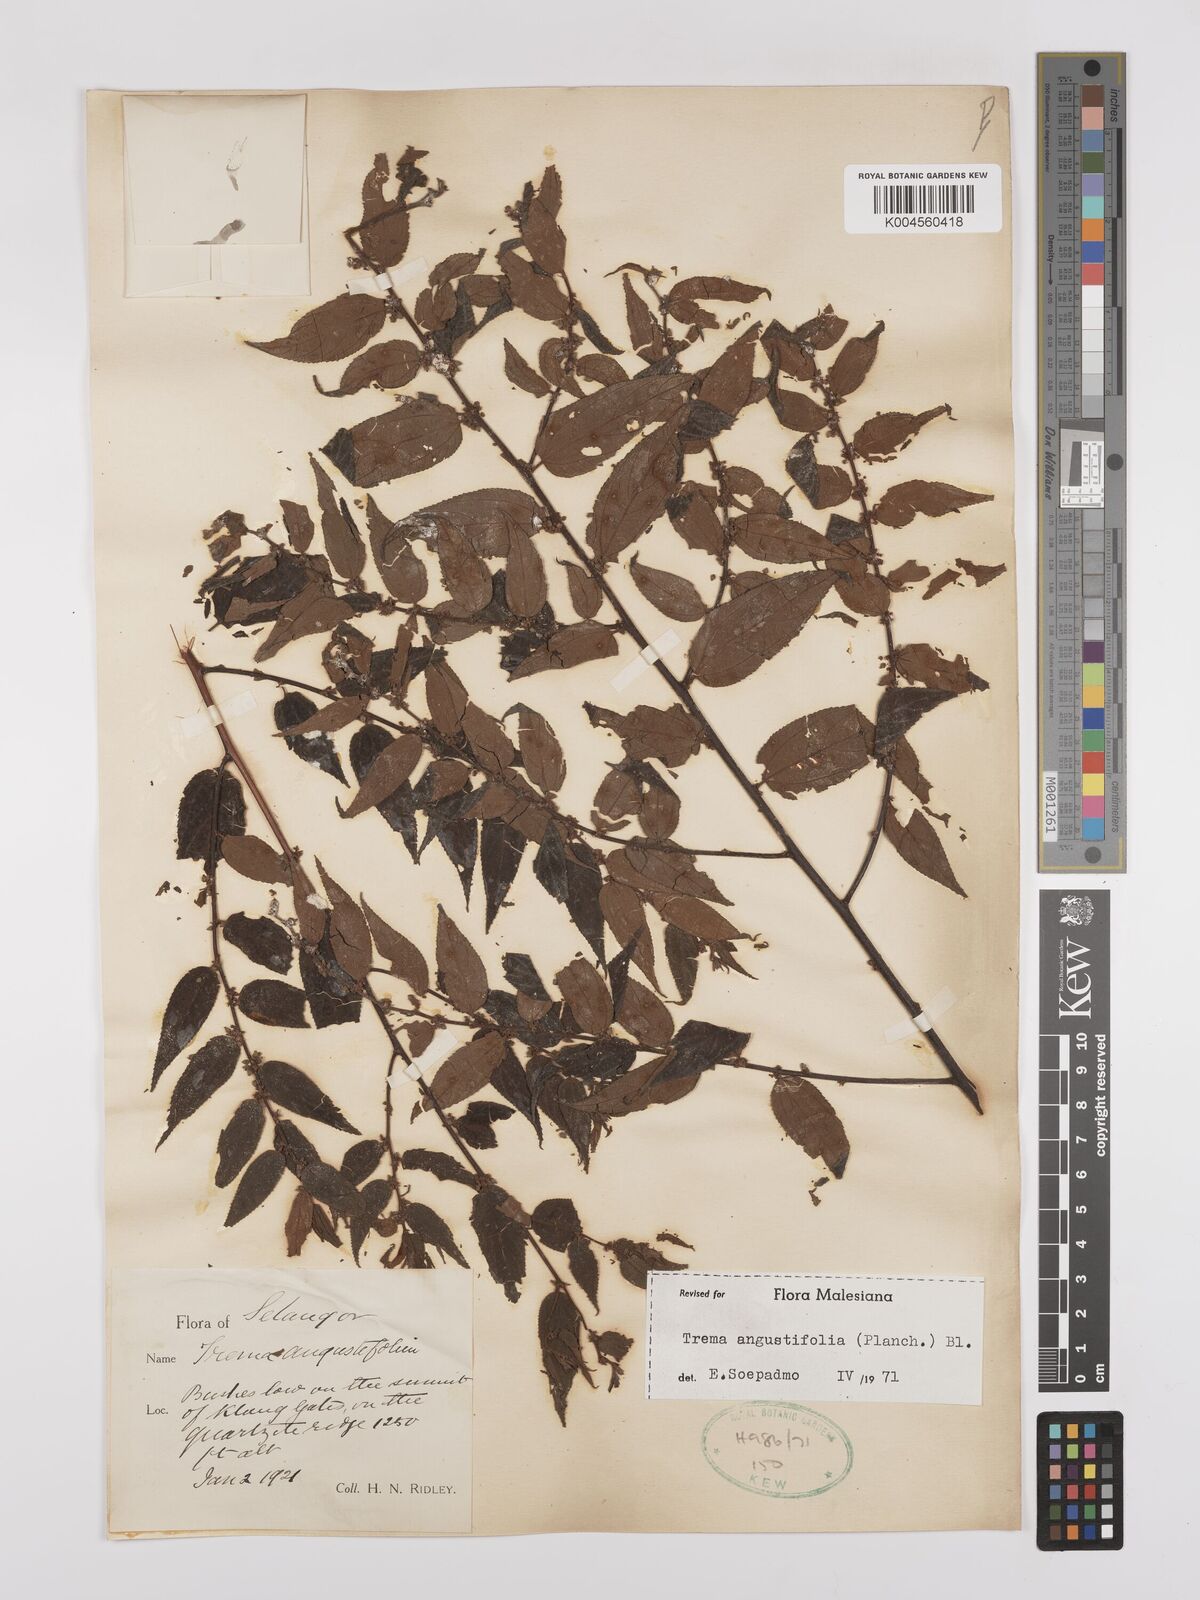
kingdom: Plantae
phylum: Tracheophyta
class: Magnoliopsida
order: Rosales
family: Cannabaceae
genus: Trema
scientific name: Trema angustifolium
